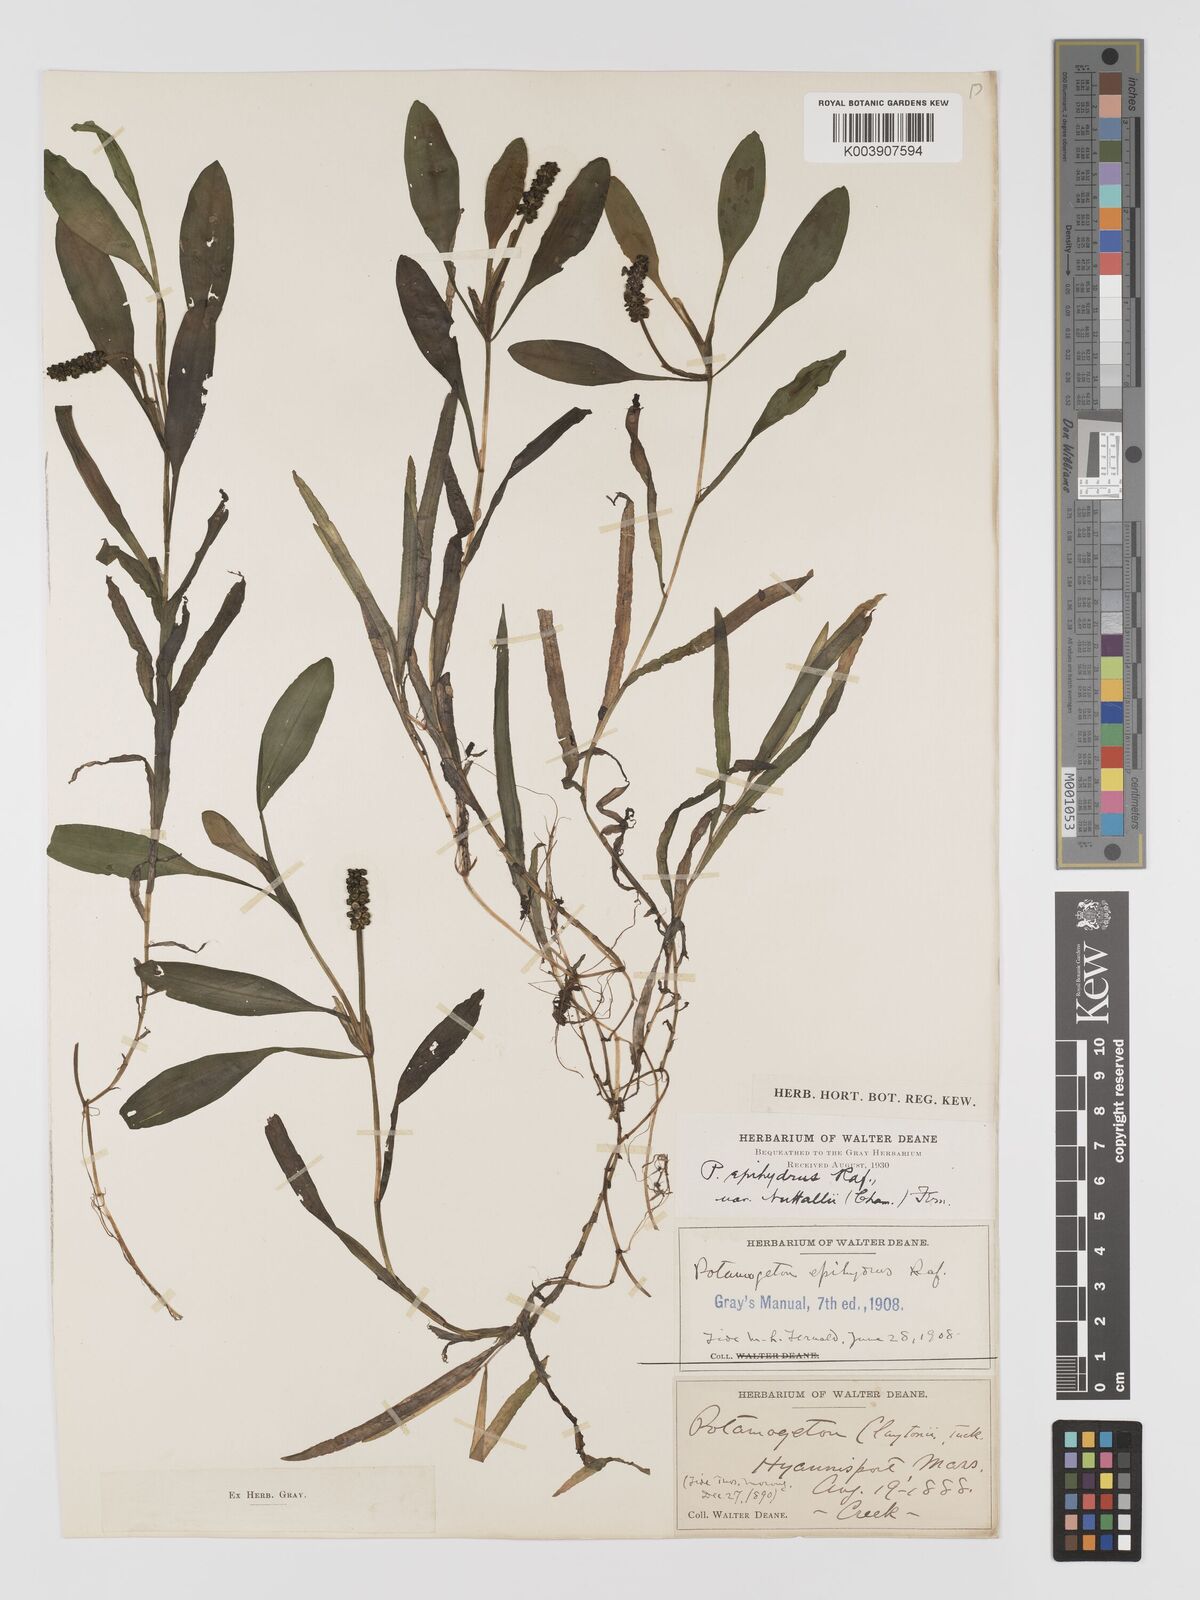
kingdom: Plantae
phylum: Tracheophyta
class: Liliopsida
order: Alismatales
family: Potamogetonaceae
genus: Potamogeton
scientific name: Potamogeton epihydrus
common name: American pondweed
